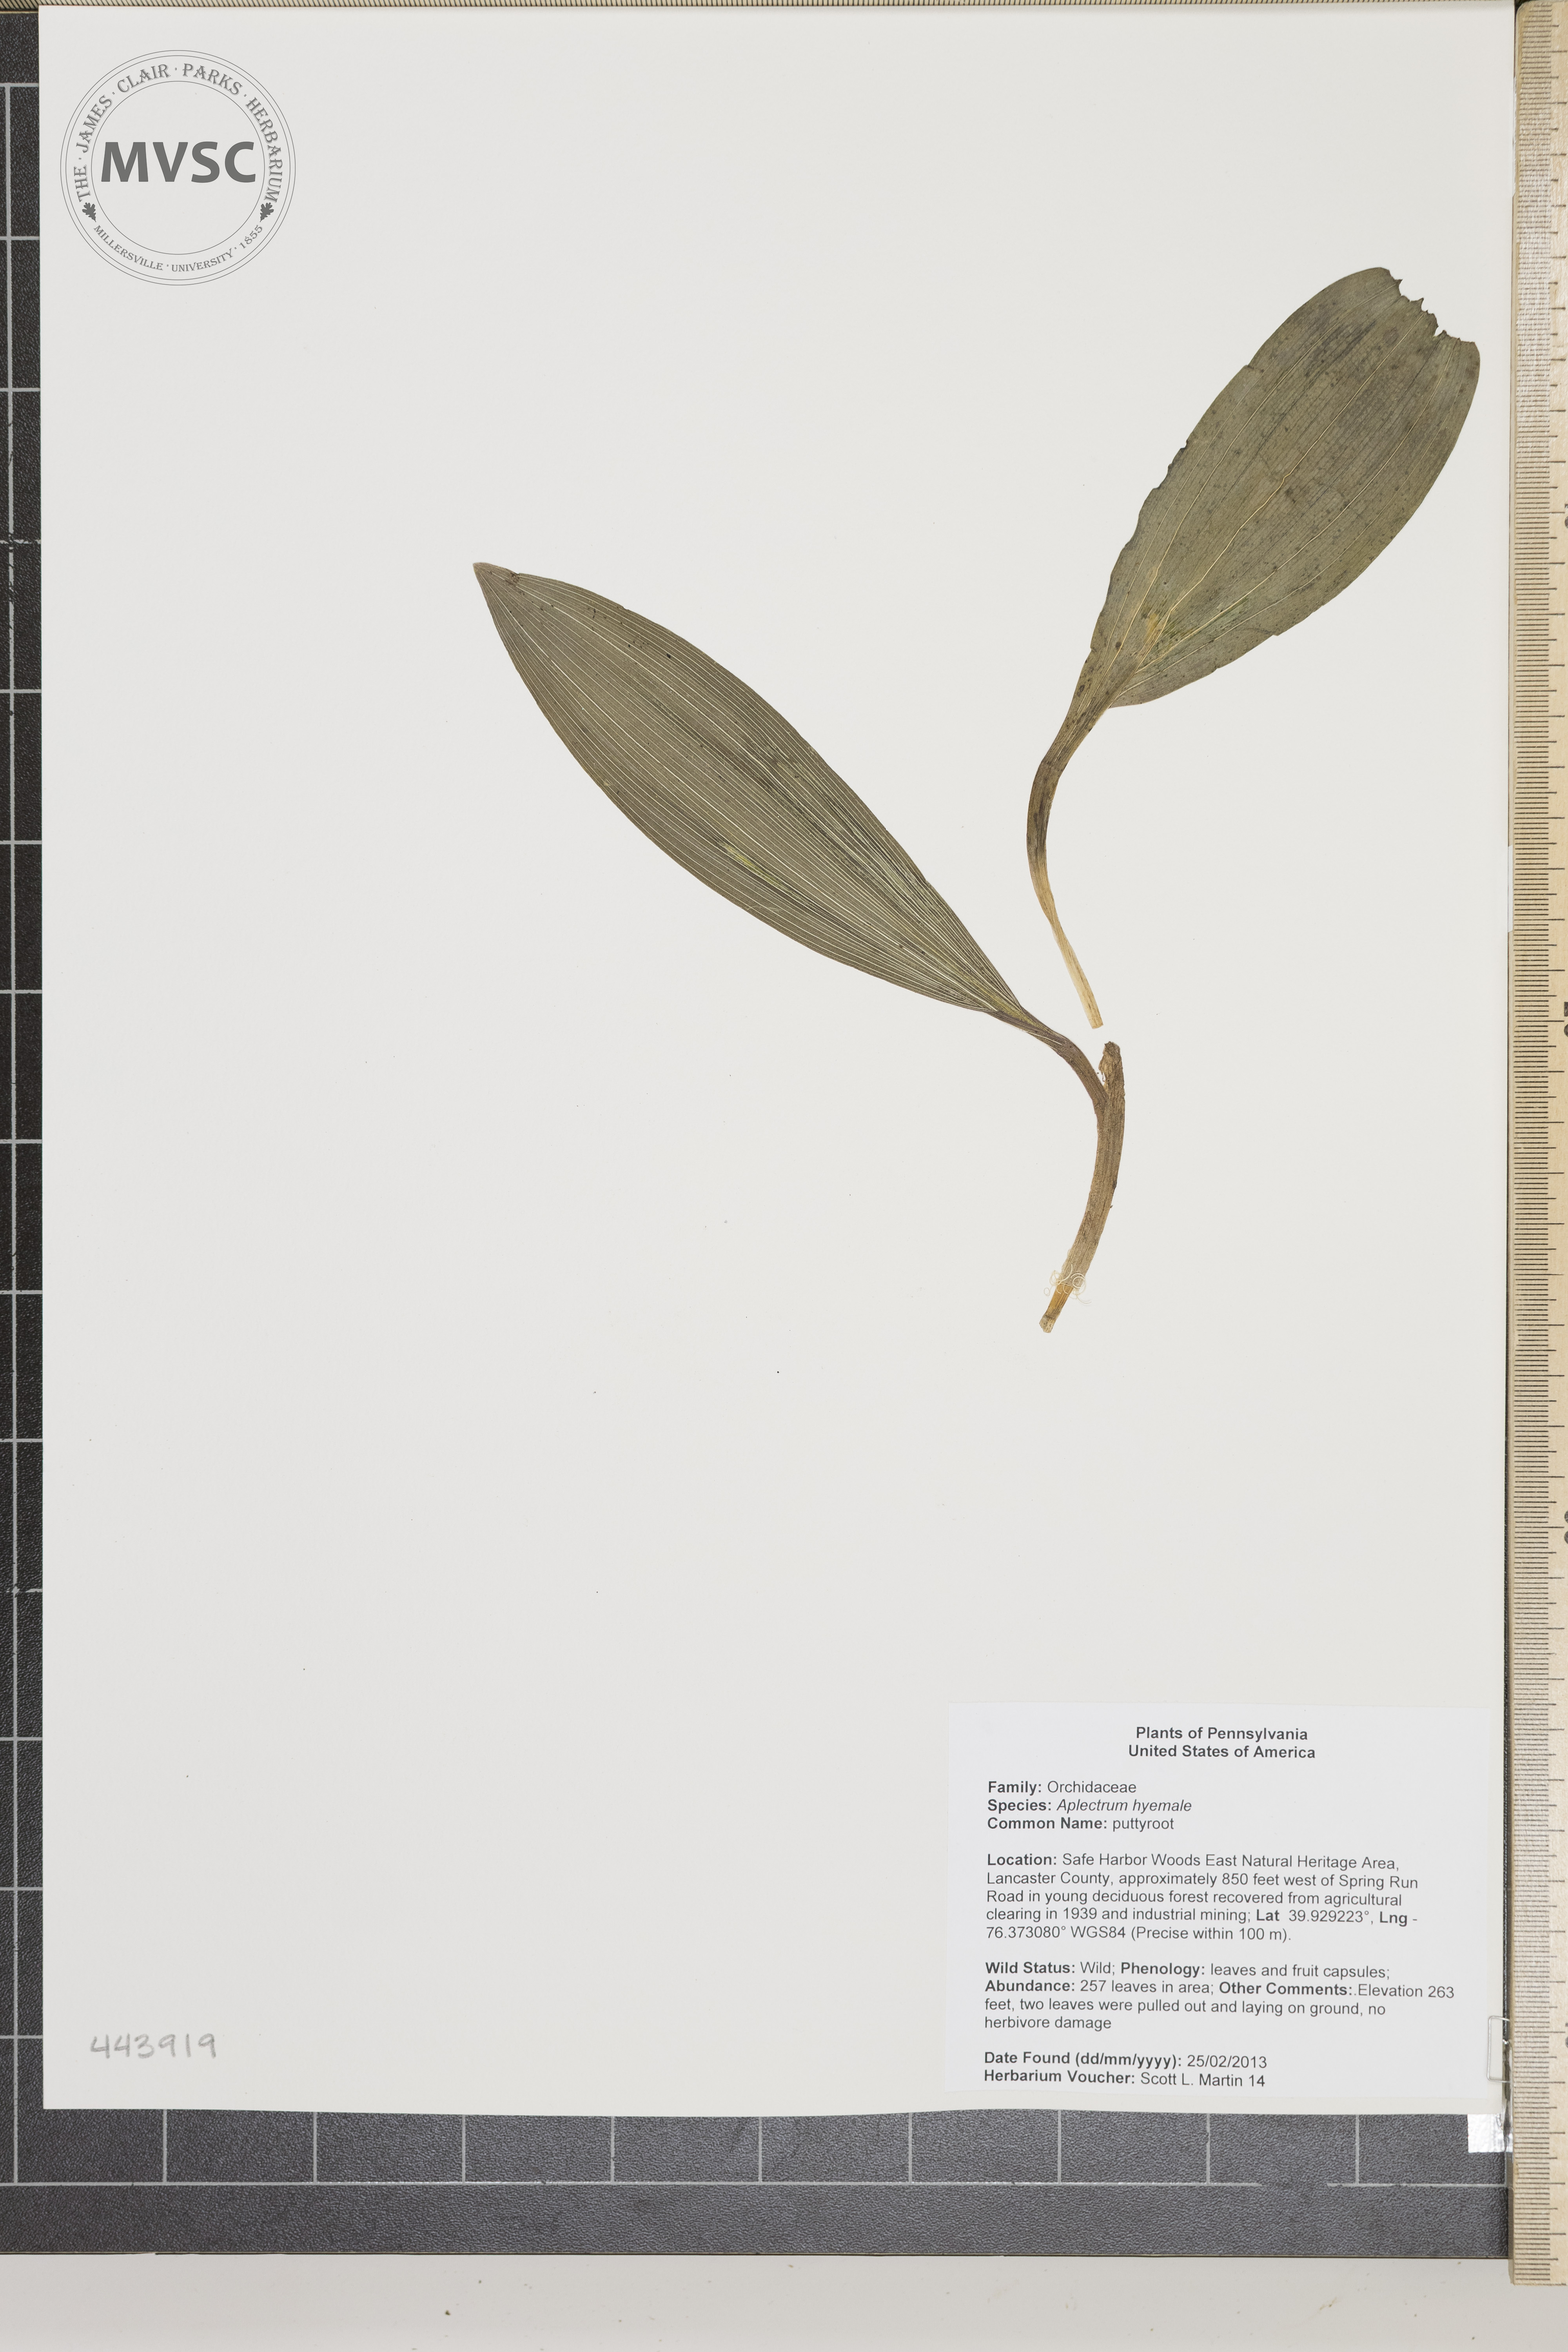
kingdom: Plantae
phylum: Tracheophyta
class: Liliopsida
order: Asparagales
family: Orchidaceae
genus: Aplectrum
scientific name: Aplectrum hyemale
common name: Puttyroot
